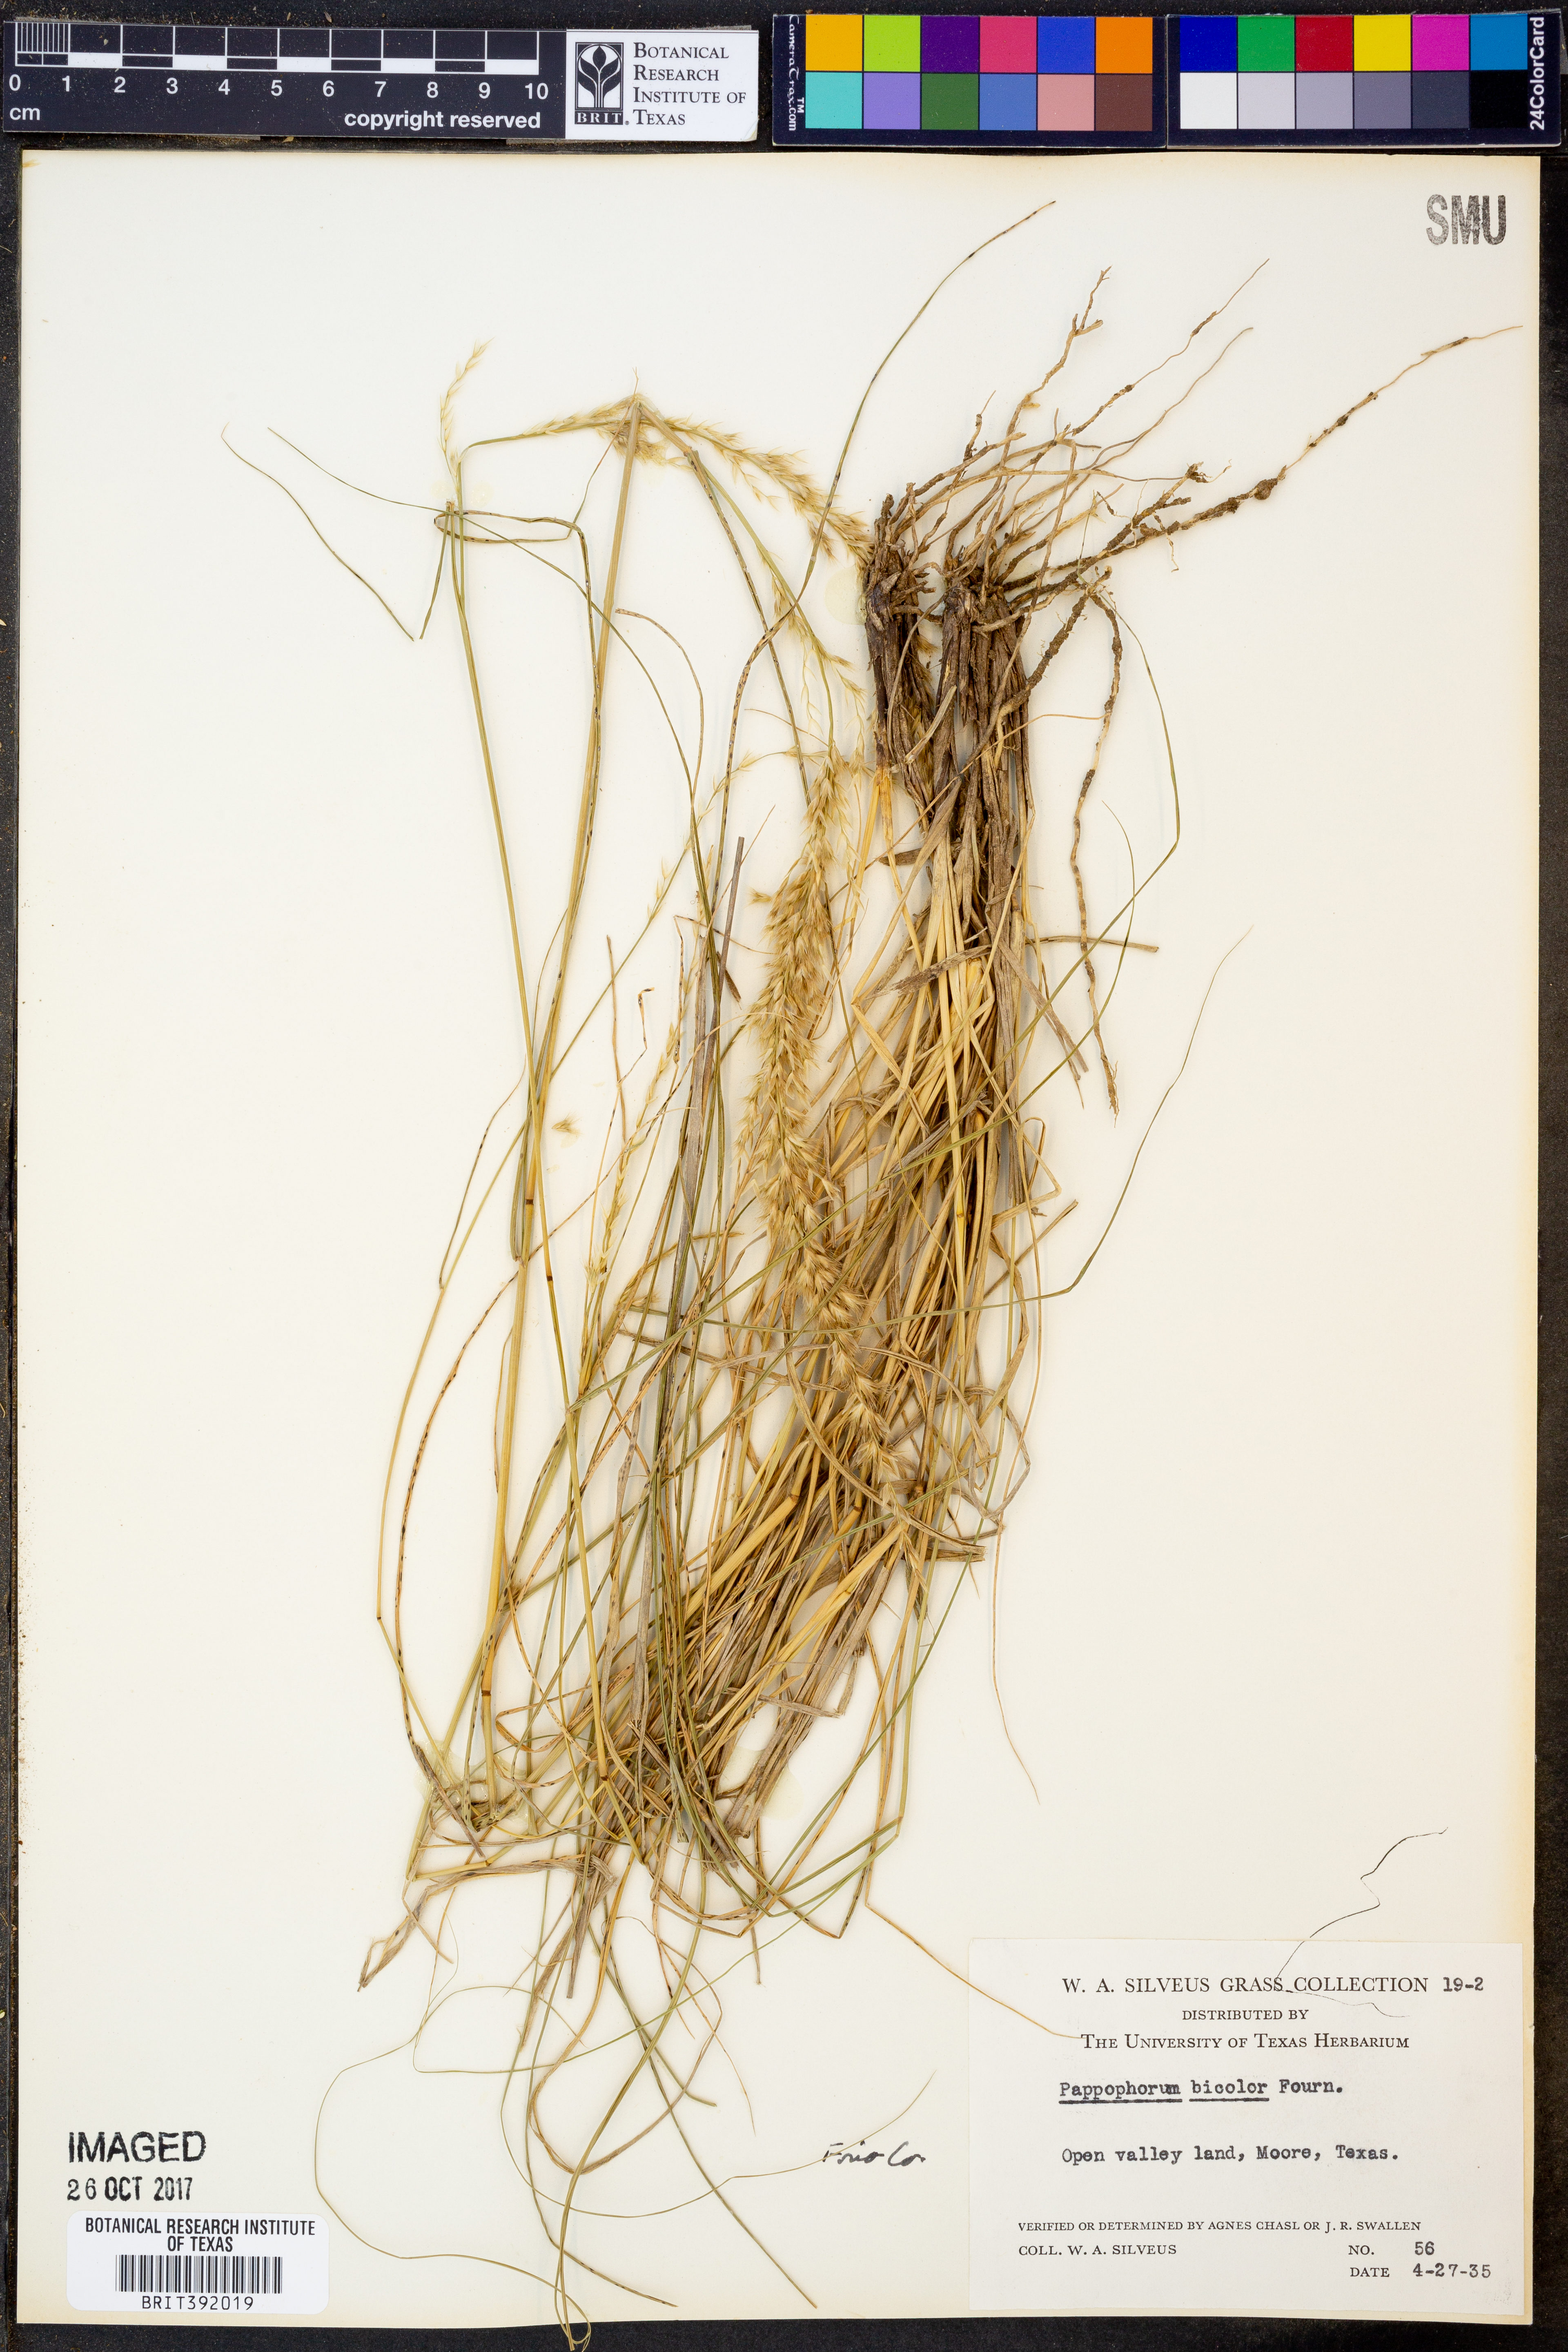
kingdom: Plantae
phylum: Tracheophyta
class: Liliopsida
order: Poales
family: Poaceae
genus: Pappophorum
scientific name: Pappophorum bicolor
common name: Pink pappus grass
